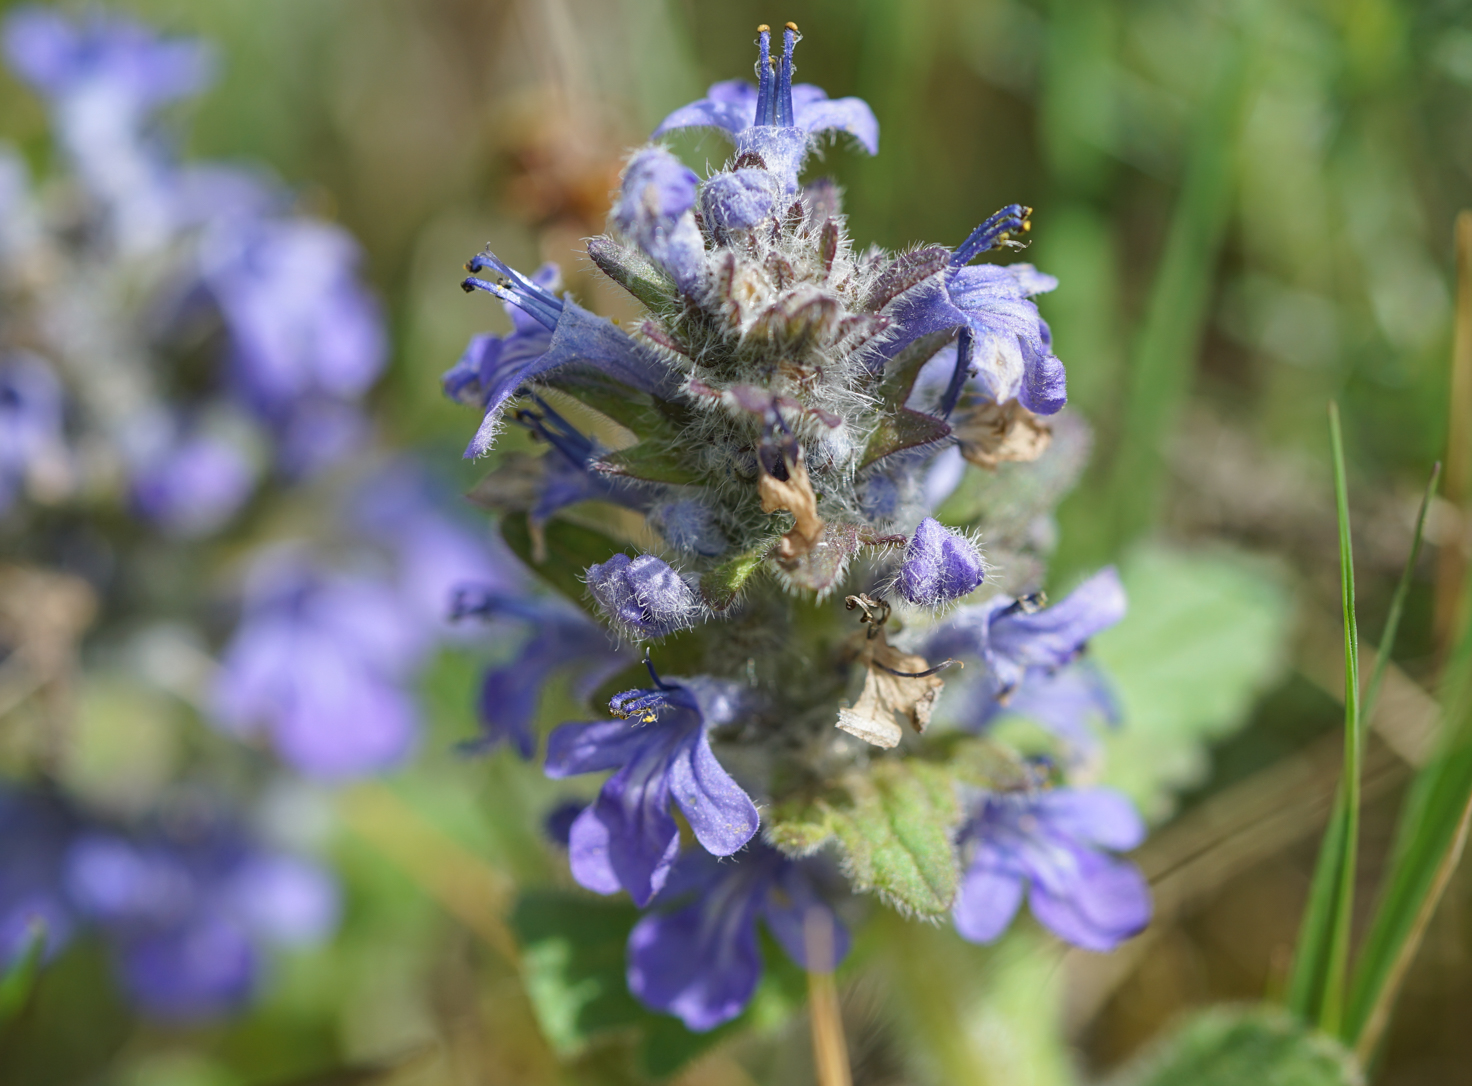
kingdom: Plantae
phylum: Tracheophyta
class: Magnoliopsida
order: Lamiales
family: Lamiaceae
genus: Ajuga
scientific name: Ajuga reptans
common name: Bugle
